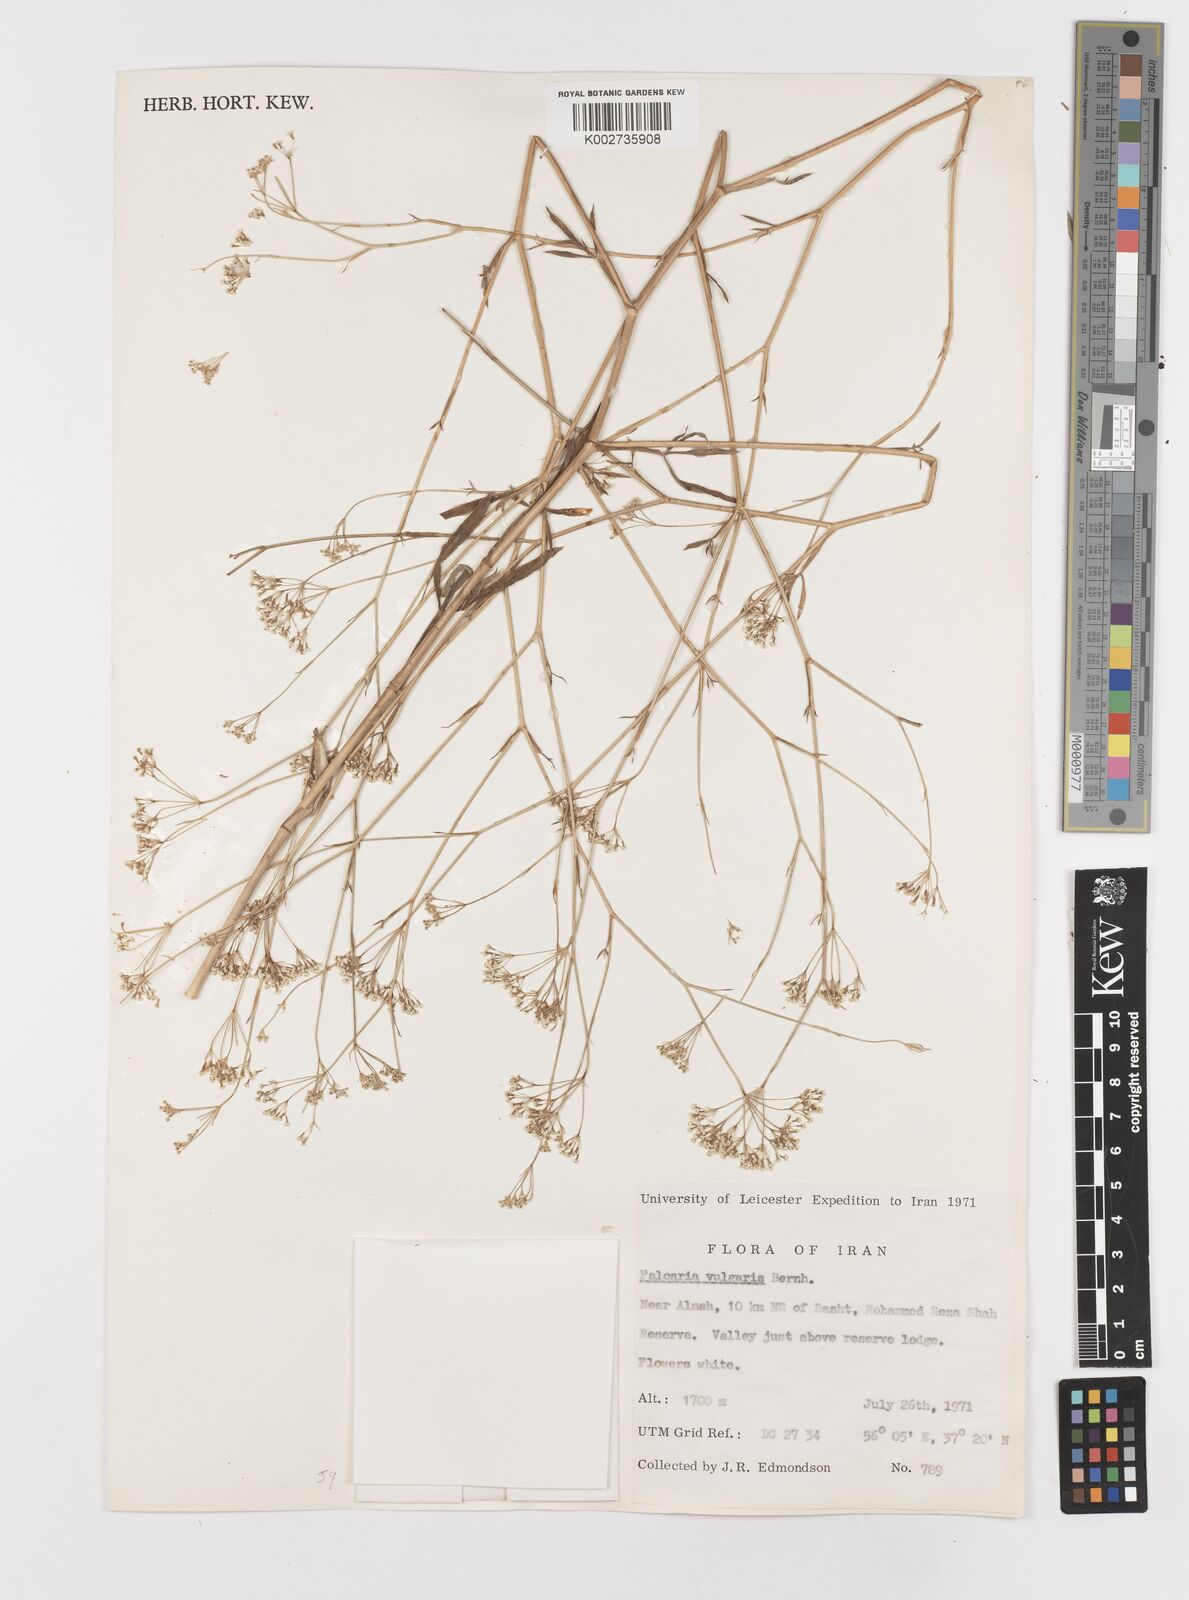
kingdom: Plantae
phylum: Tracheophyta
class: Magnoliopsida
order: Apiales
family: Apiaceae
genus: Falcaria
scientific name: Falcaria vulgaris
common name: Longleaf
